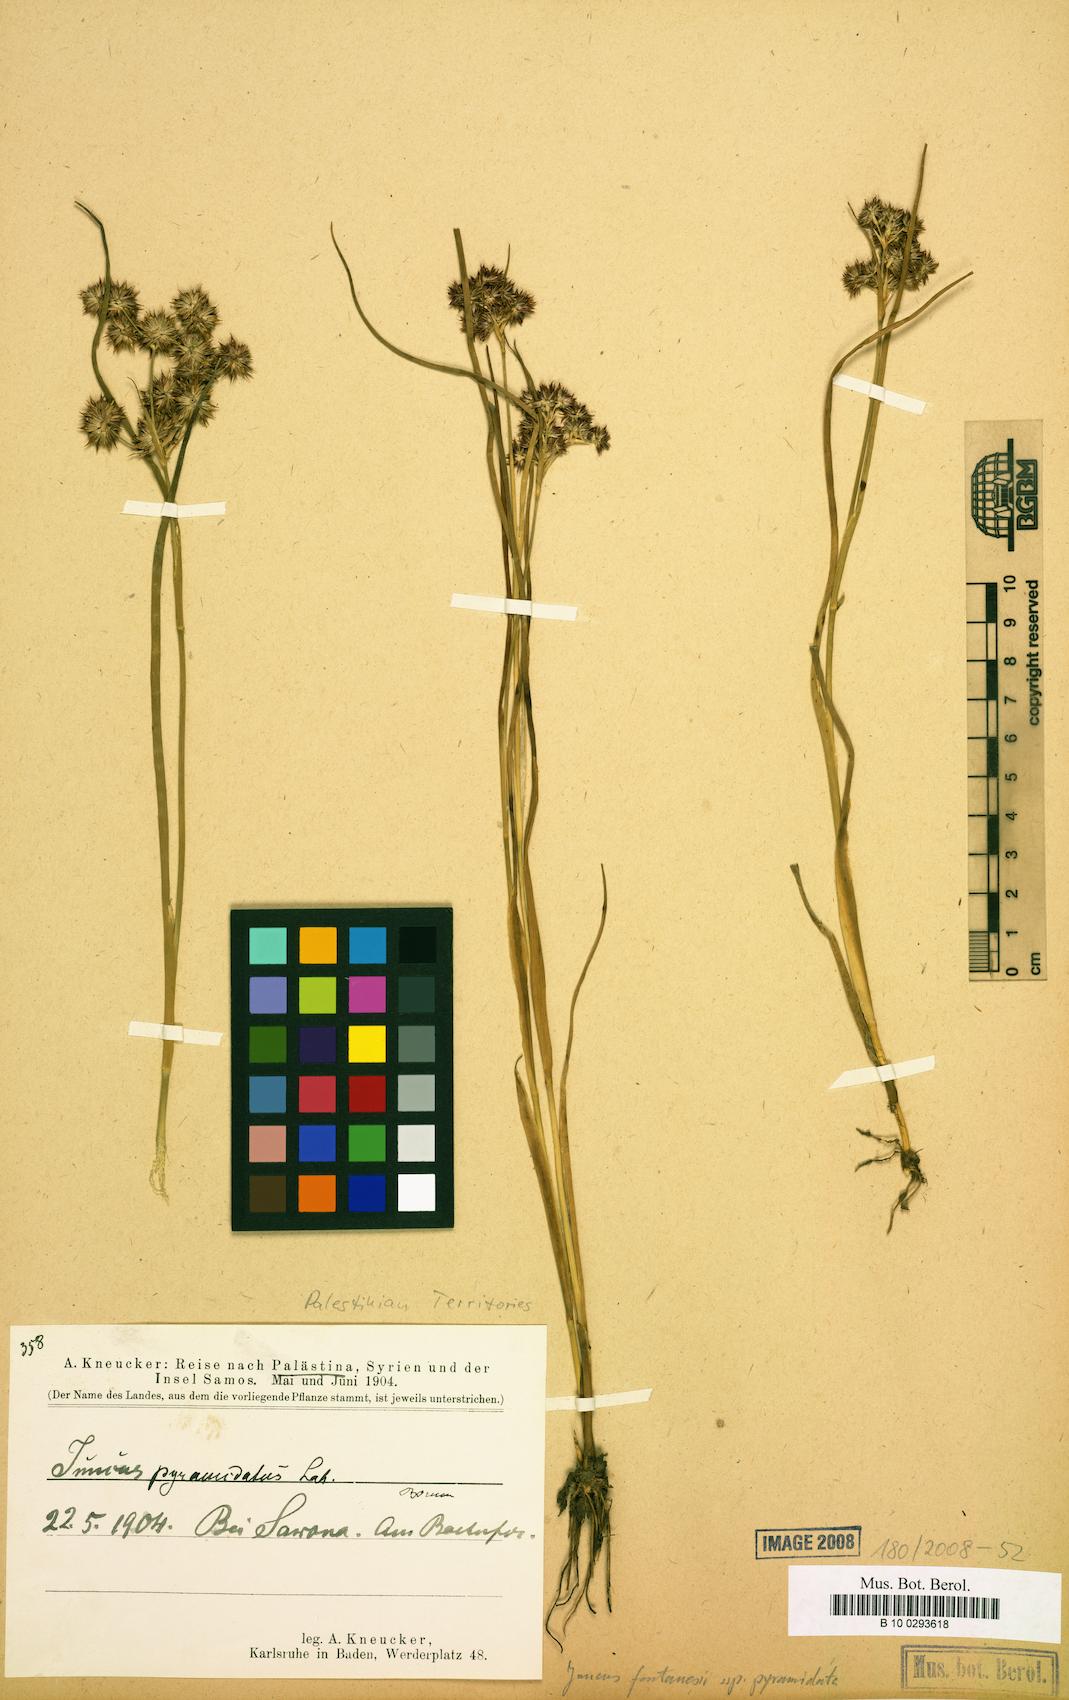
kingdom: Plantae
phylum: Tracheophyta
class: Liliopsida
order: Poales
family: Juncaceae
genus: Juncus
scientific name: Juncus fontanesii
